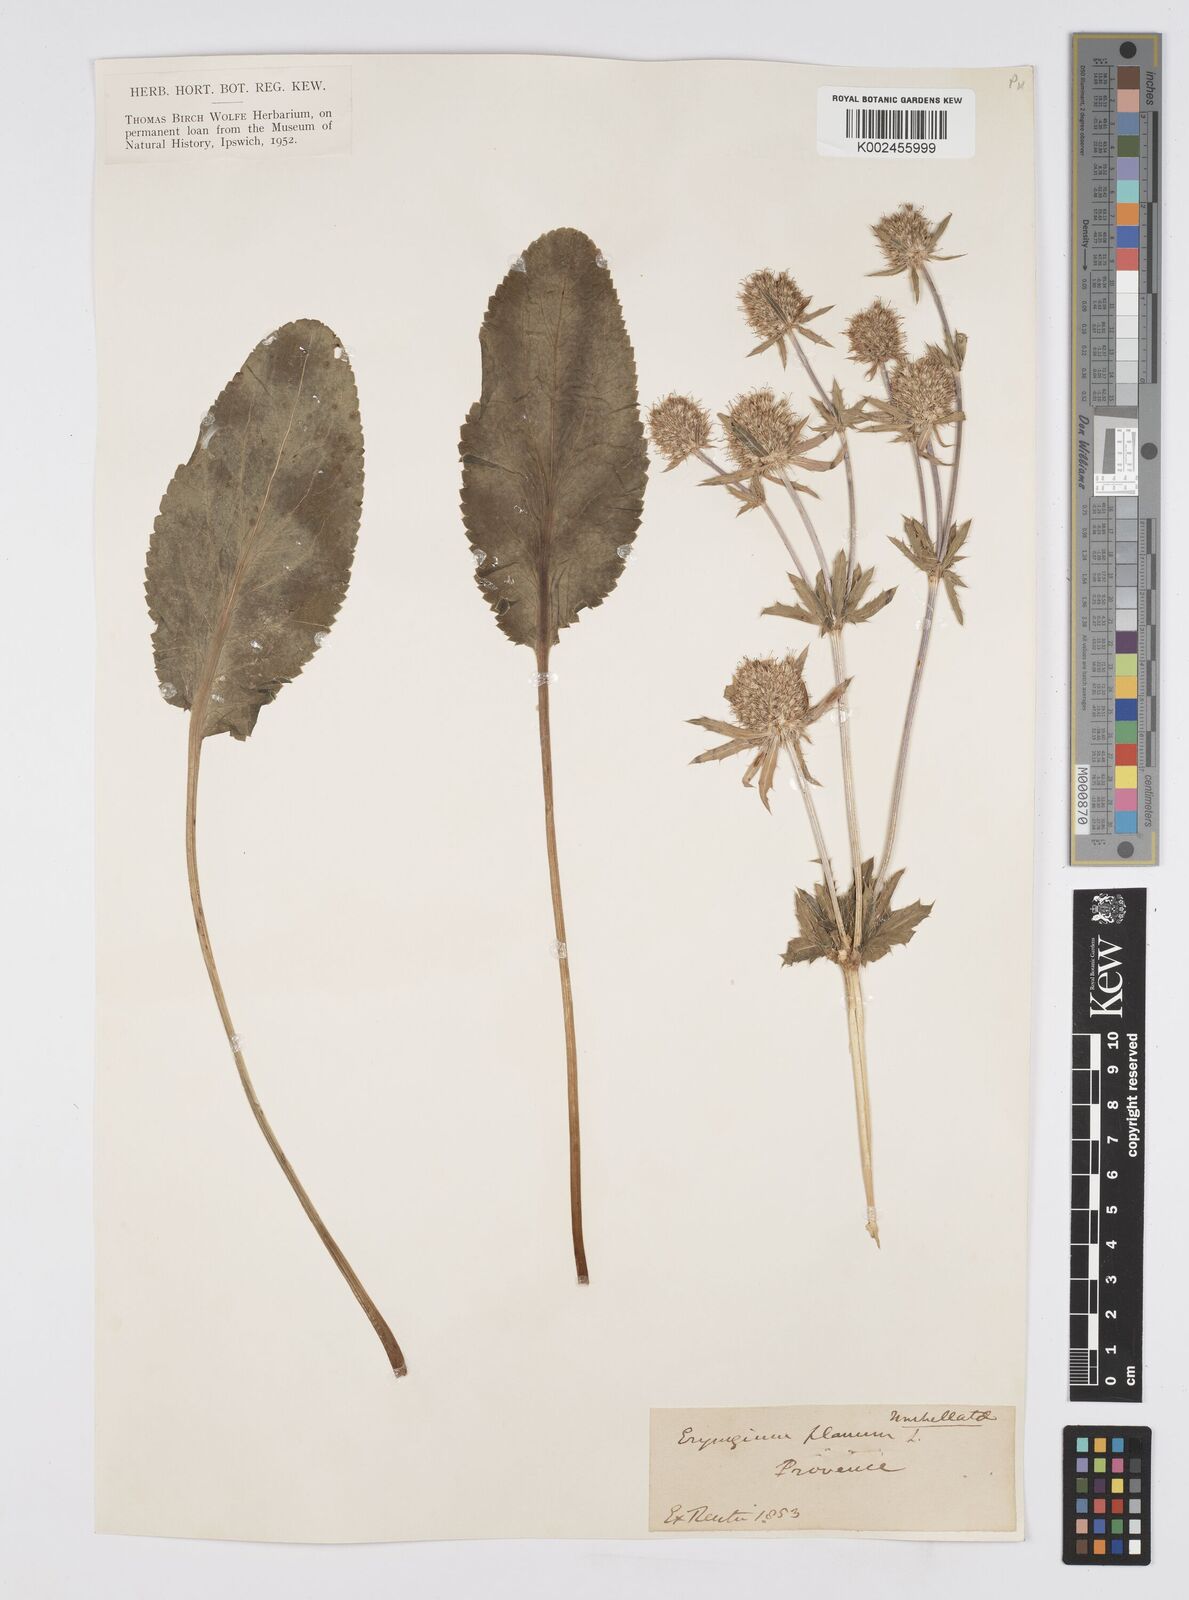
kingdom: Plantae
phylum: Tracheophyta
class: Magnoliopsida
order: Apiales
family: Apiaceae
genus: Eryngium
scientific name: Eryngium planum
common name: Blue eryngo
